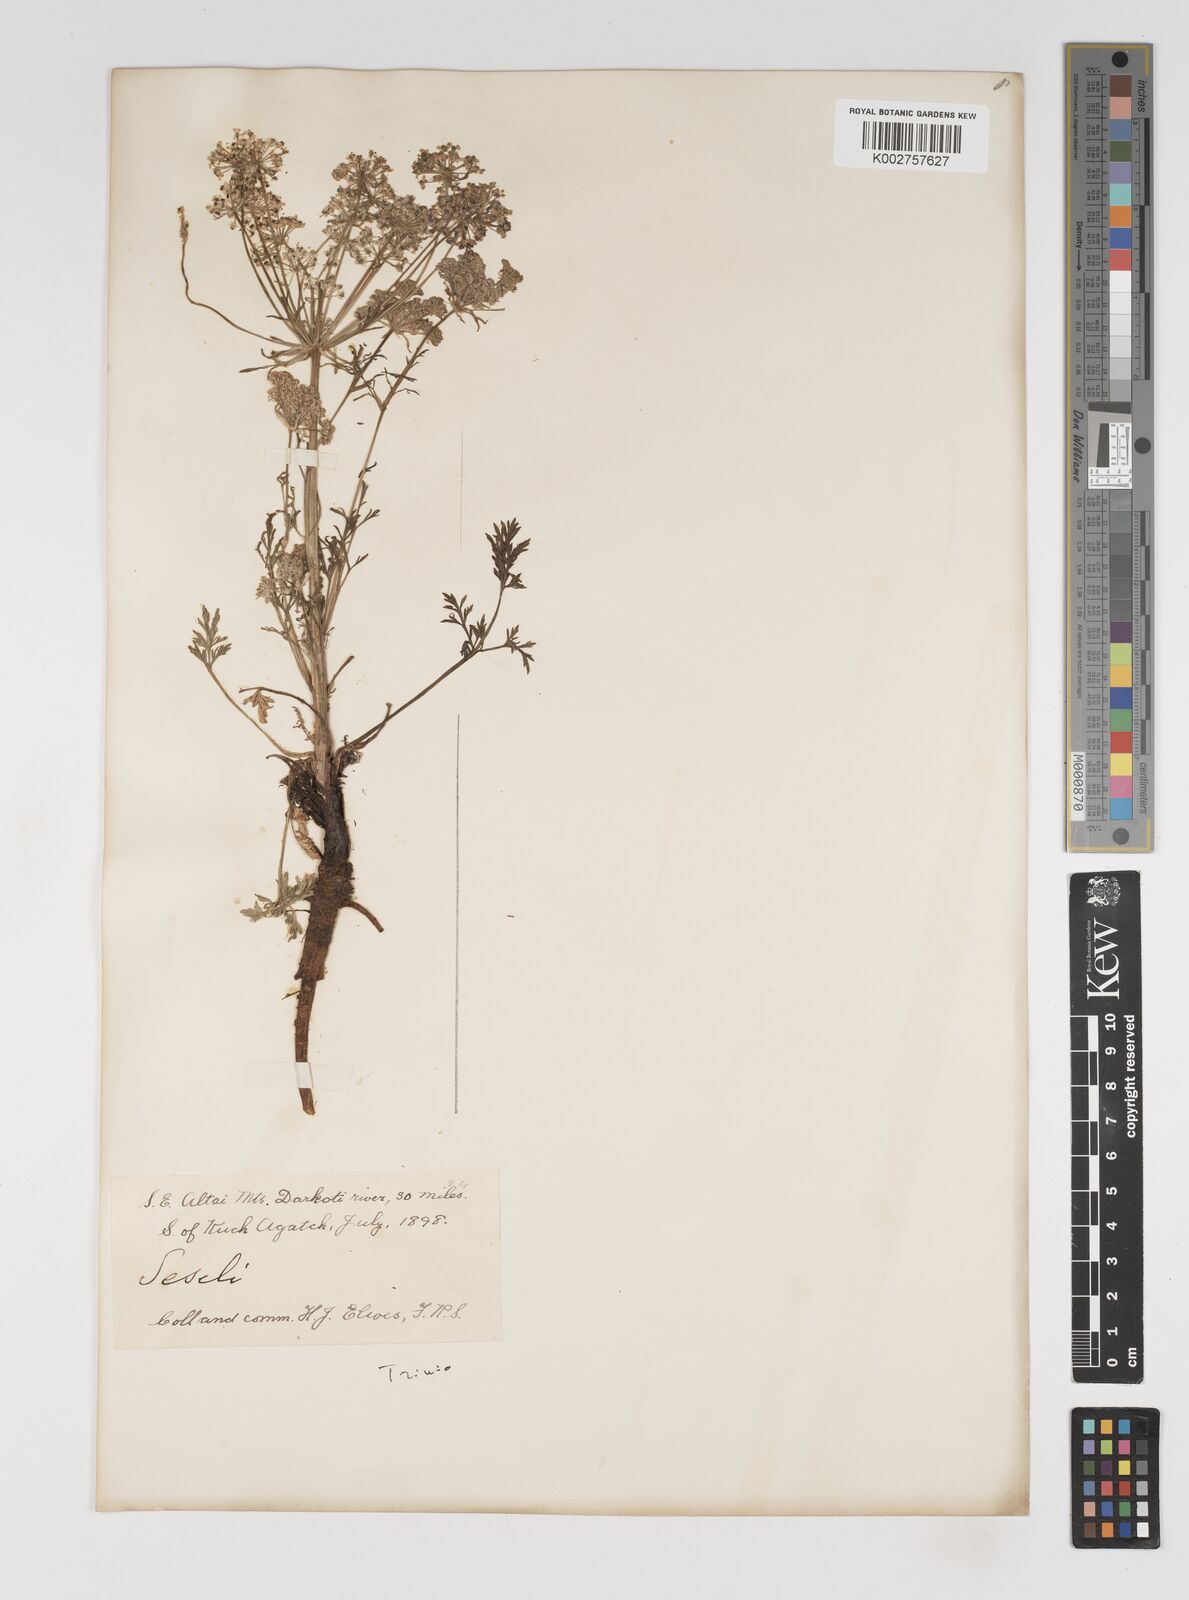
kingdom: Plantae
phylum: Tracheophyta
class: Magnoliopsida
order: Apiales
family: Apiaceae
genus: Seseli
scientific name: Seseli
